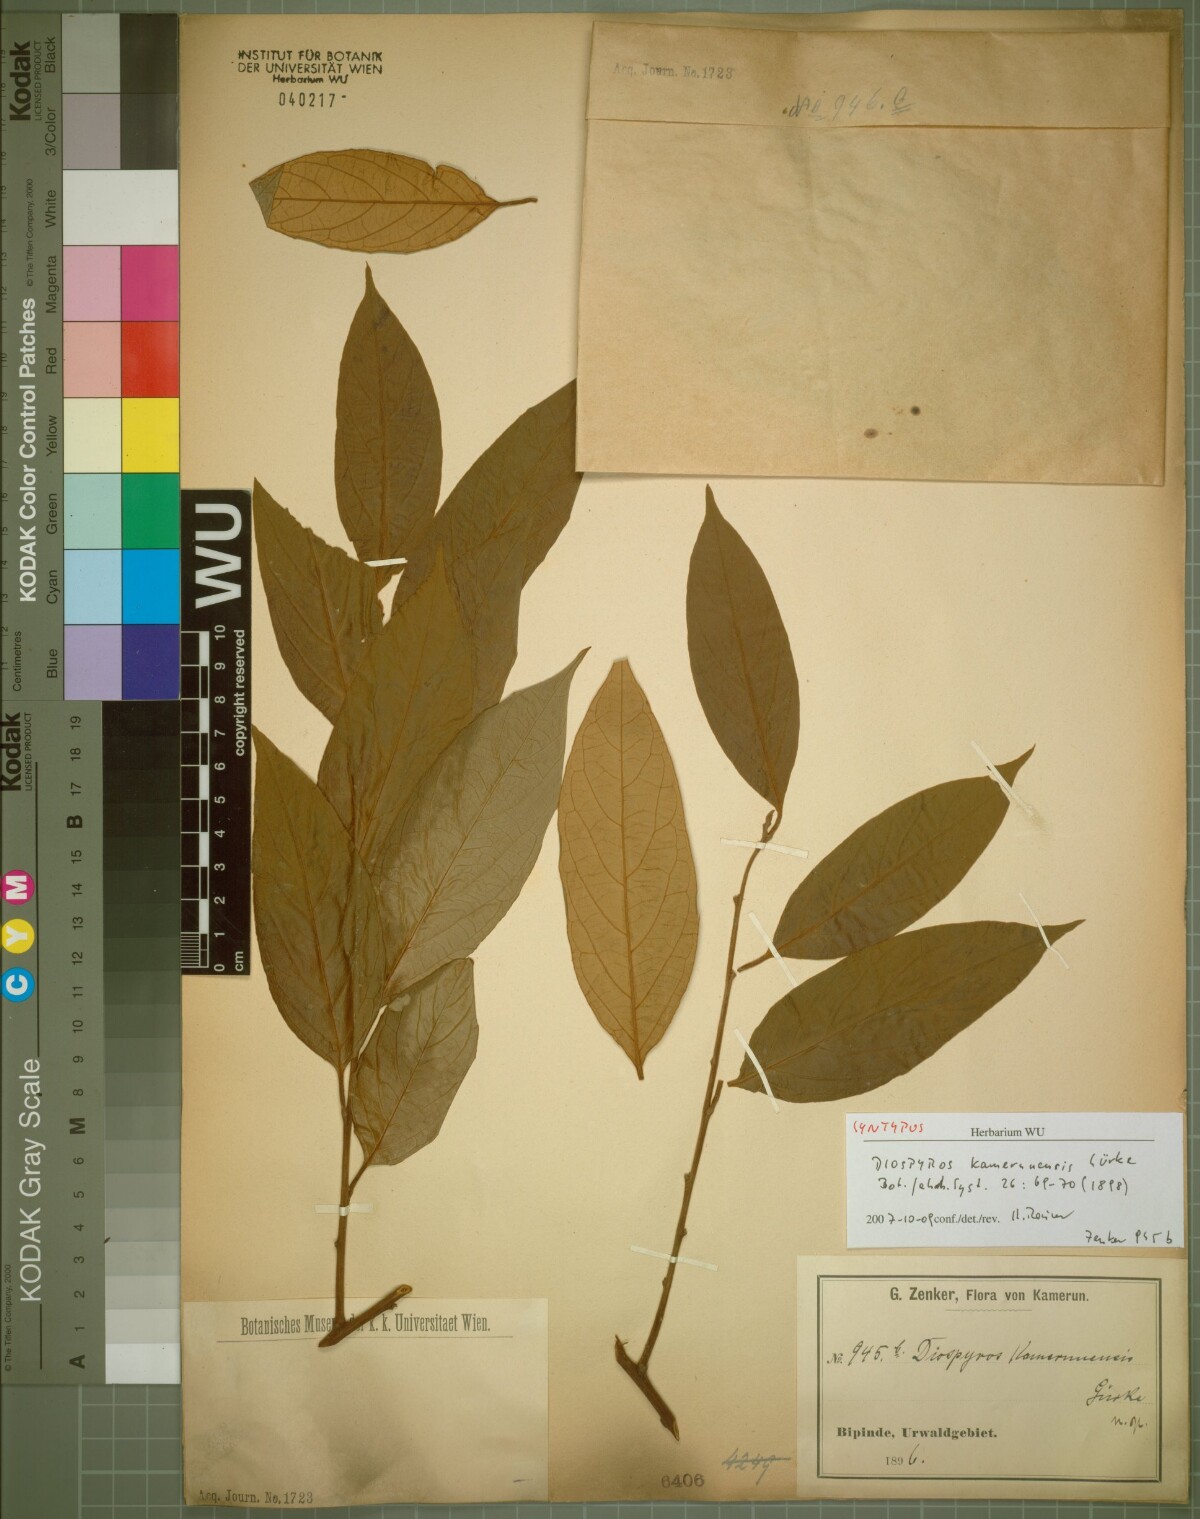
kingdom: Plantae
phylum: Tracheophyta
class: Magnoliopsida
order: Ericales
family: Ebenaceae
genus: Diospyros
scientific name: Diospyros kamerunensis
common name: African ebony
